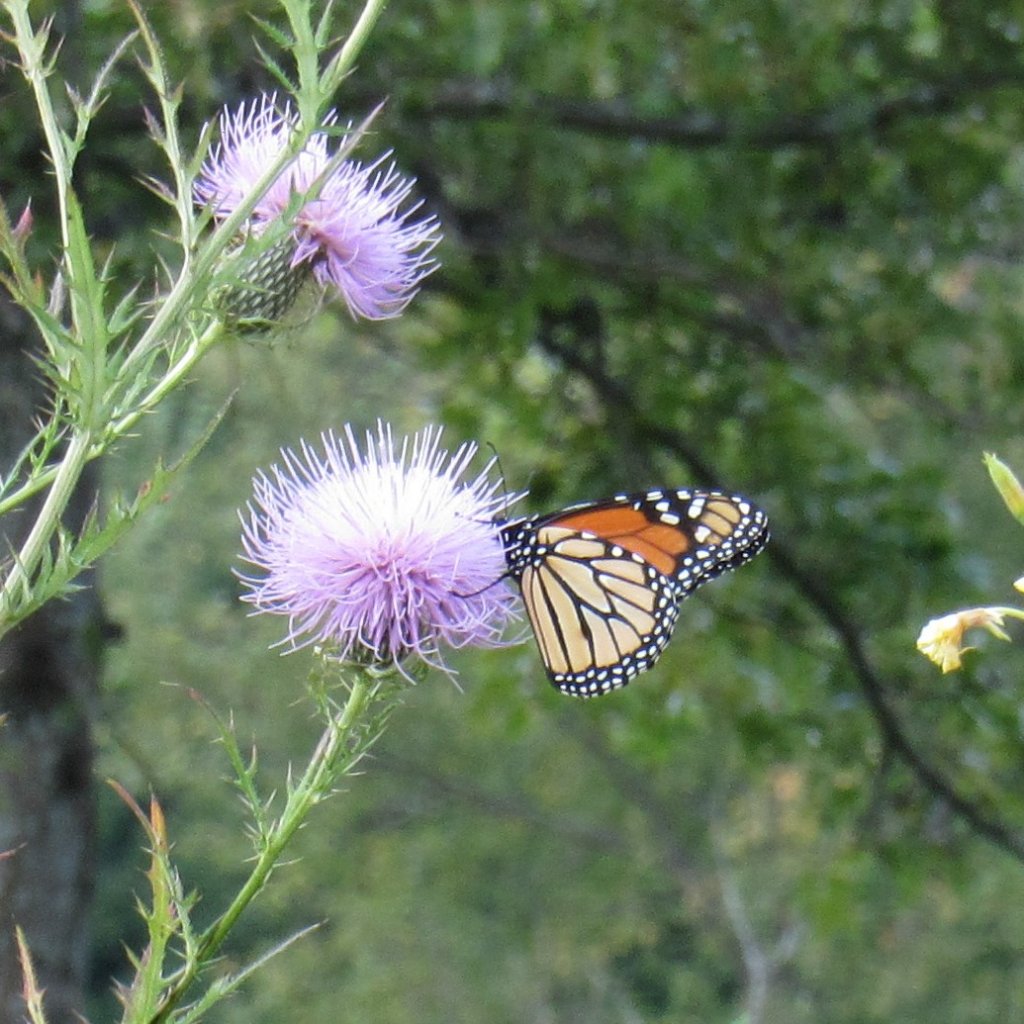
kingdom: Animalia
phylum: Arthropoda
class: Insecta
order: Lepidoptera
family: Nymphalidae
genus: Danaus
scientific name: Danaus plexippus
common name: Monarch
